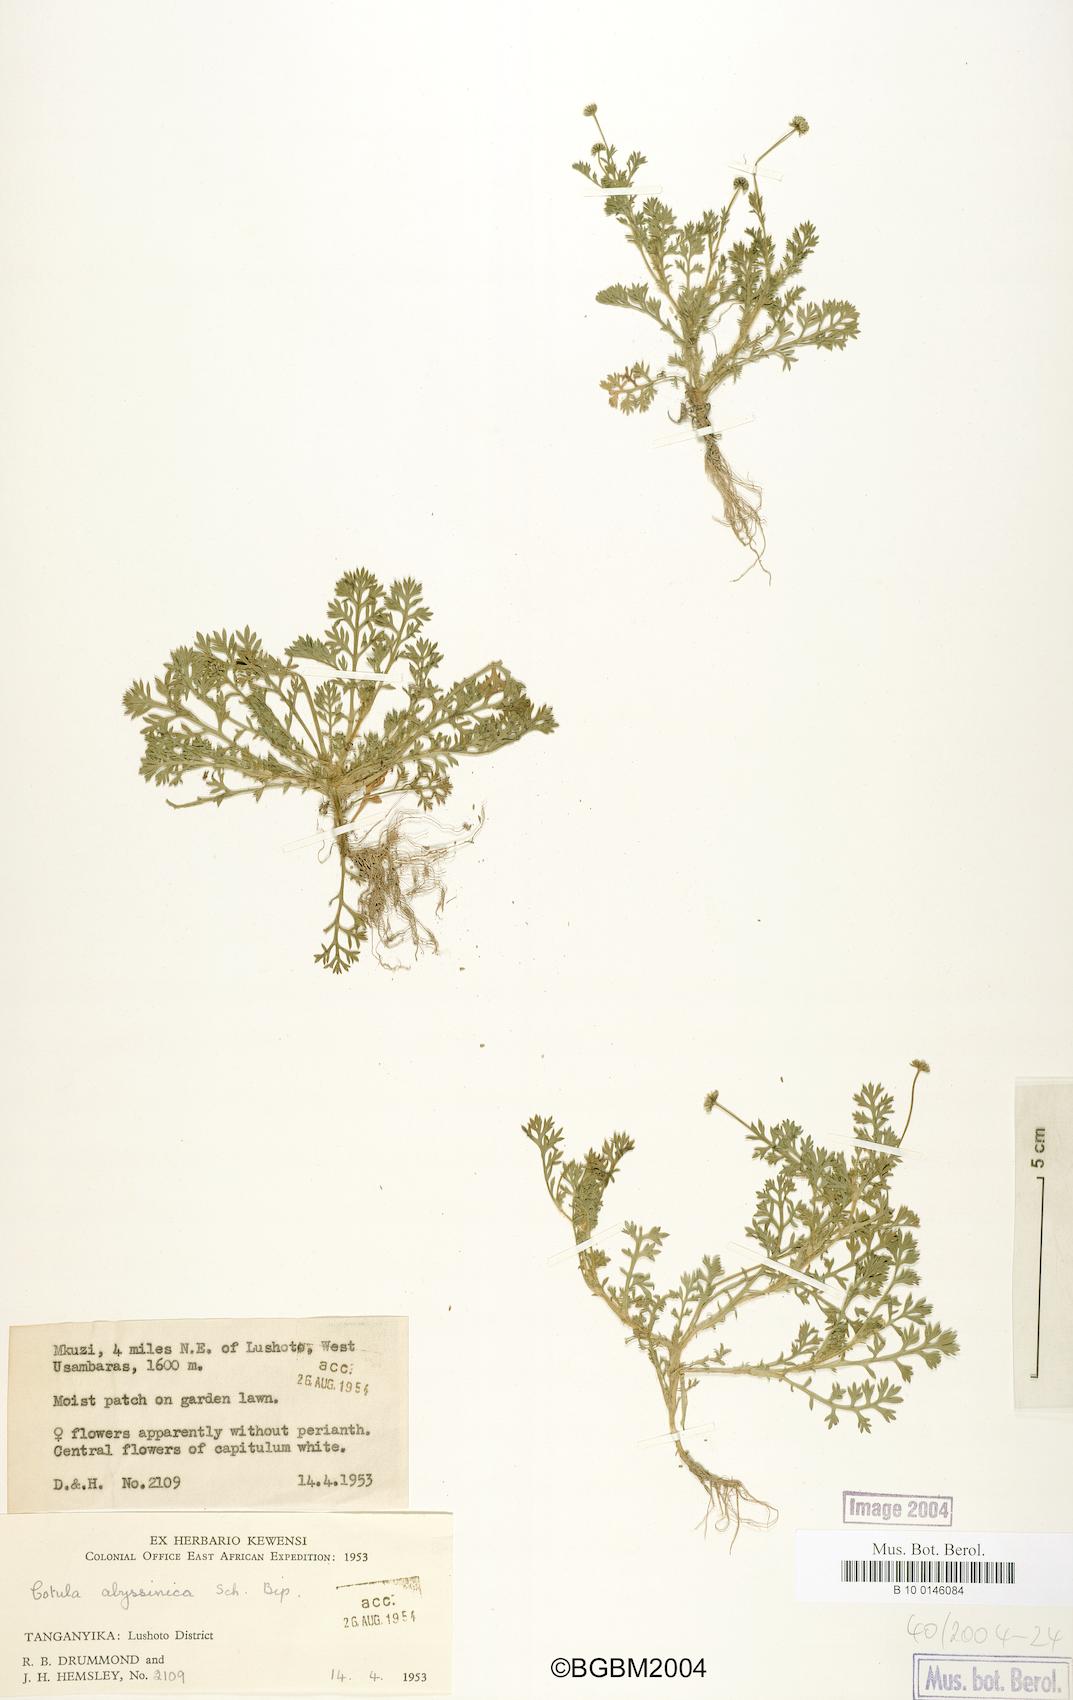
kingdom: Plantae
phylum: Tracheophyta
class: Magnoliopsida
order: Asterales
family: Asteraceae
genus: Cotula
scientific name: Cotula abyssinica
